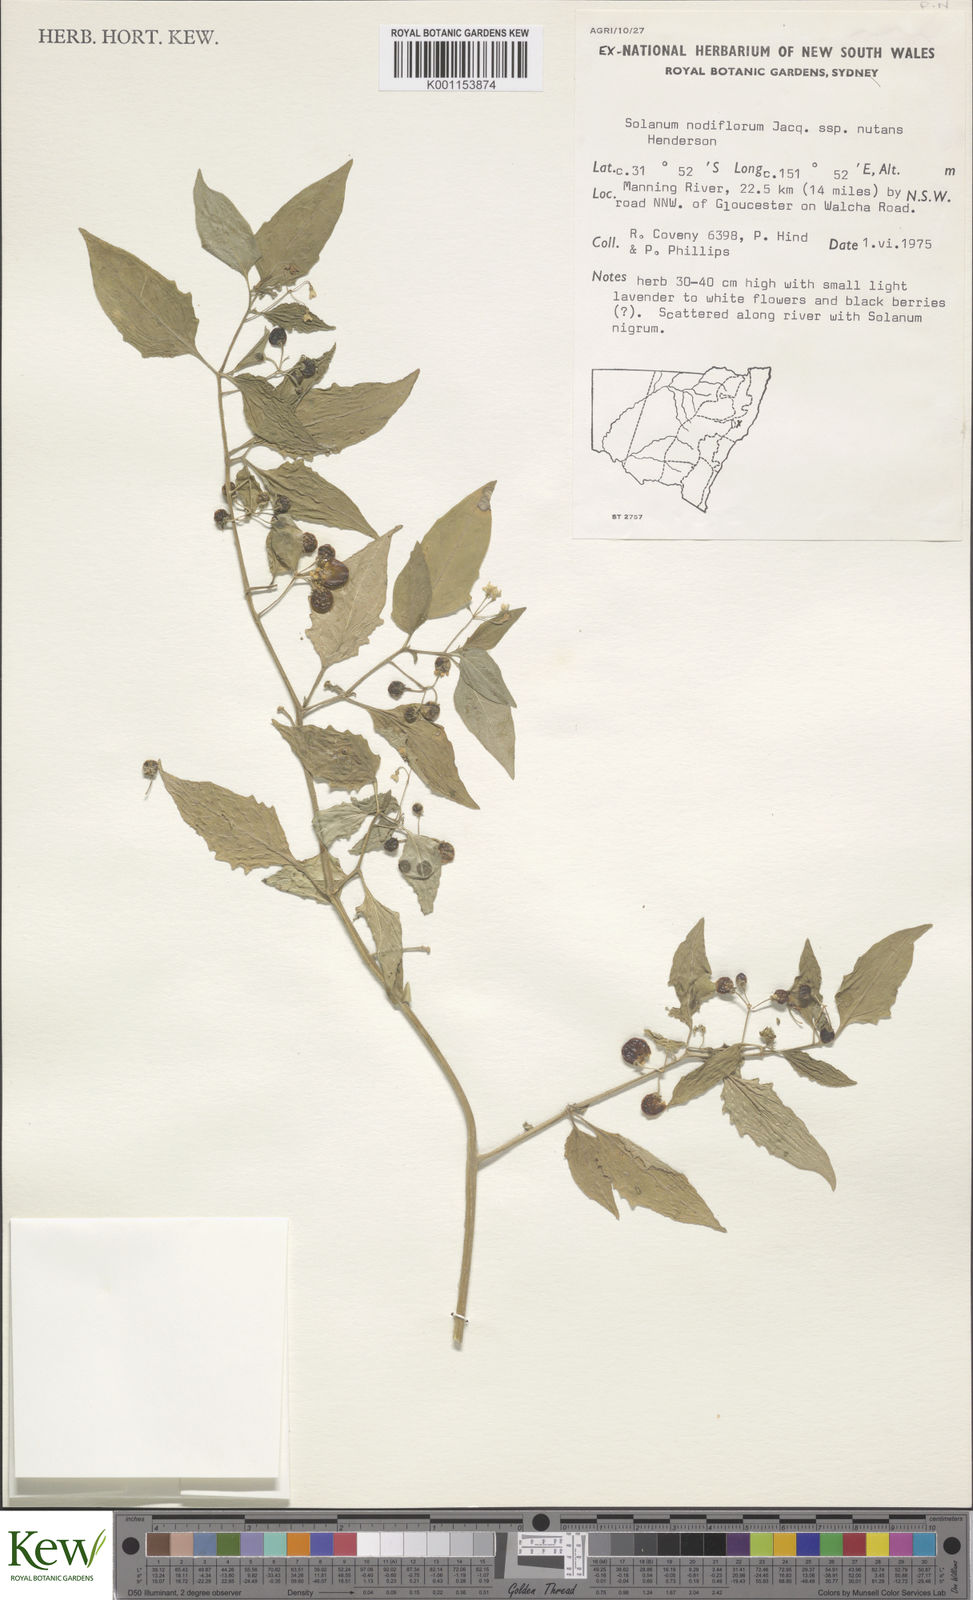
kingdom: Plantae
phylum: Tracheophyta
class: Magnoliopsida
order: Solanales
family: Solanaceae
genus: Solanum
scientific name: Solanum americanum
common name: American black nightshade
